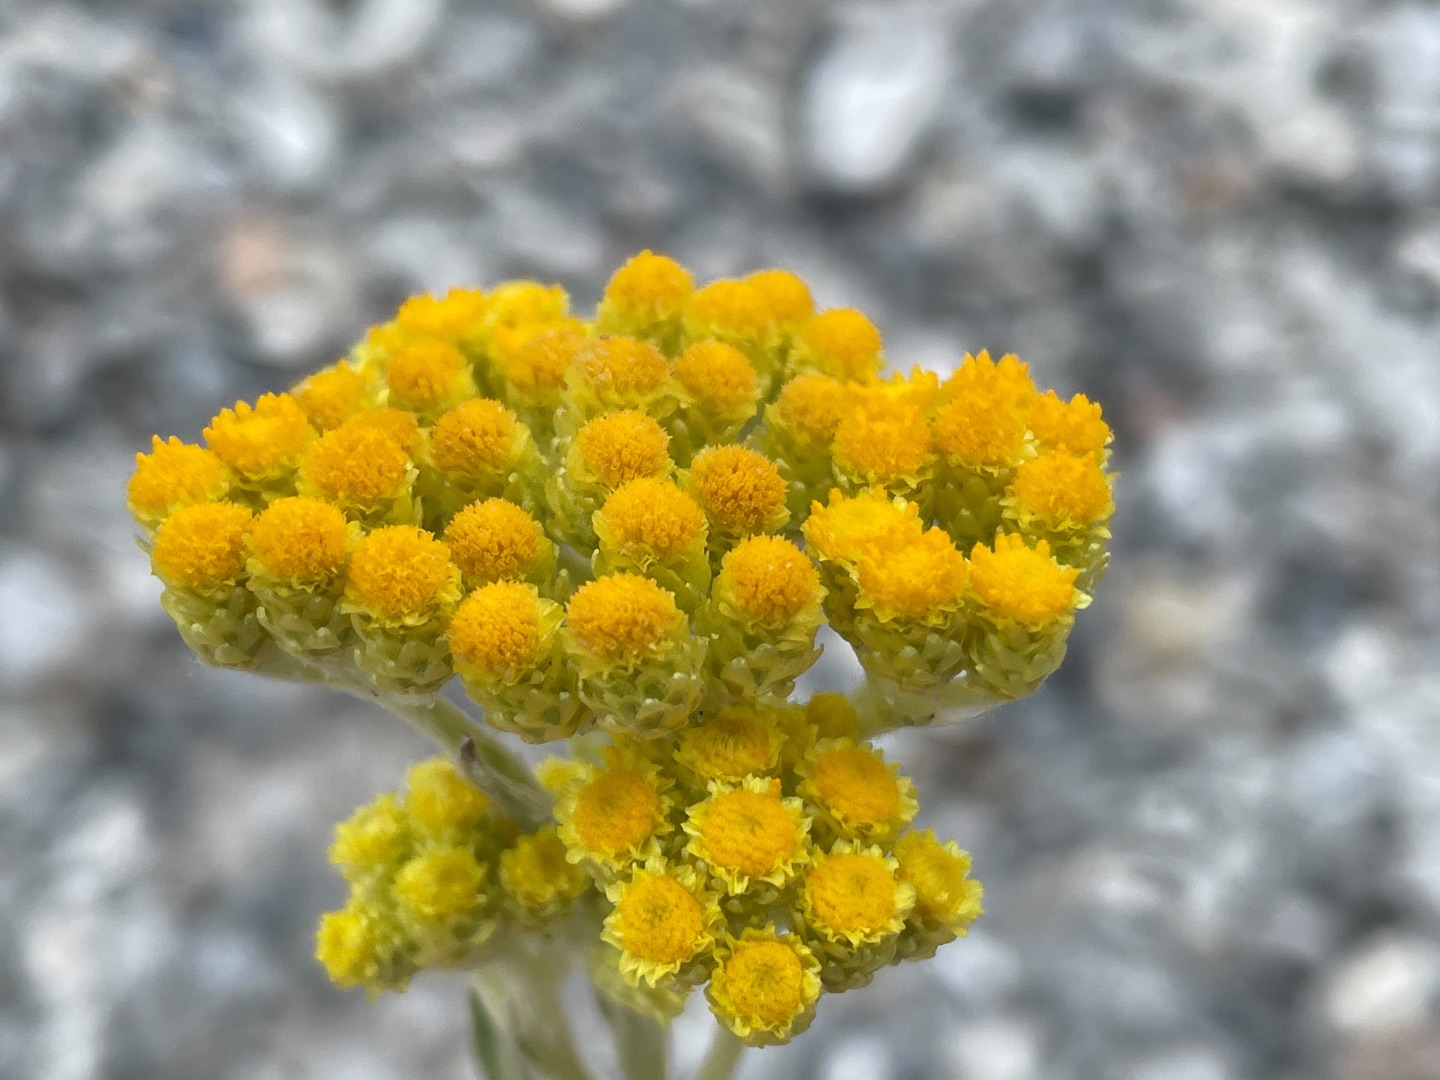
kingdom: Plantae
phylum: Tracheophyta
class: Magnoliopsida
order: Asterales
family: Asteraceae
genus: Helichrysum
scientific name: Helichrysum arenarium
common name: Gul evighedsblomst
